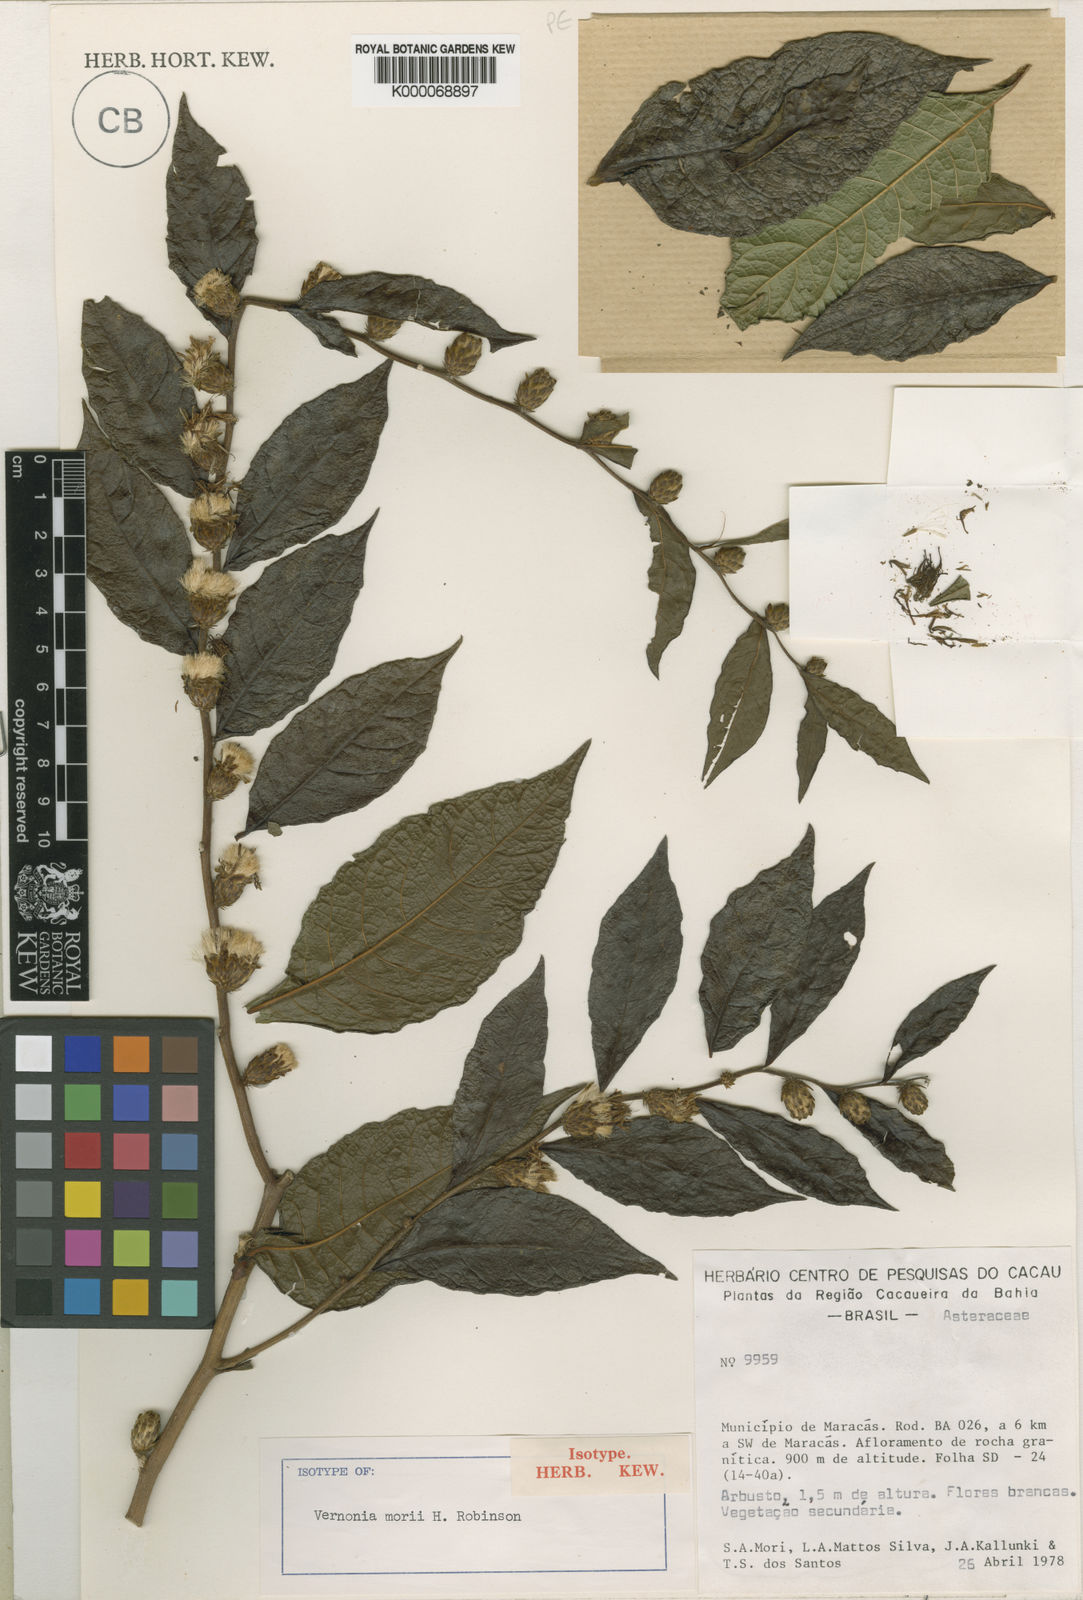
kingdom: Plantae
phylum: Tracheophyta
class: Magnoliopsida
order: Asterales
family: Asteraceae
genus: Lessingianthus
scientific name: Lessingianthus morii
